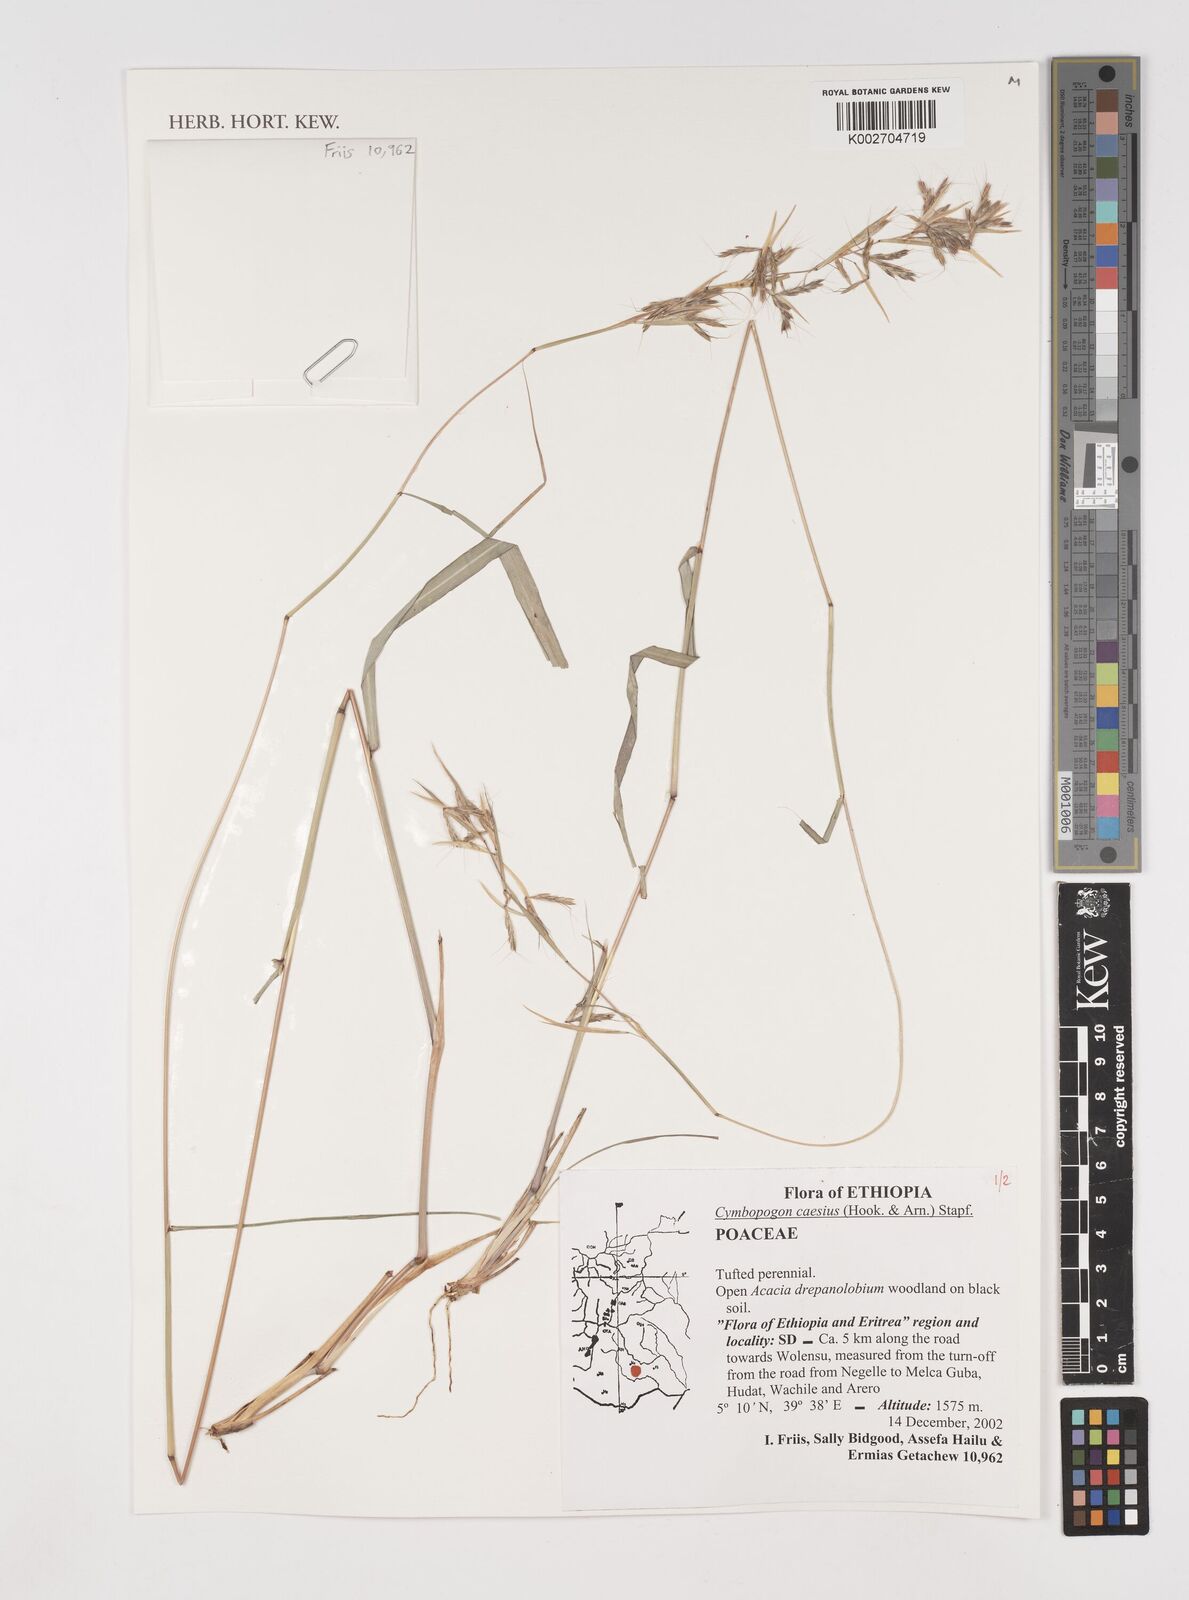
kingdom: Plantae
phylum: Tracheophyta
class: Liliopsida
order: Poales
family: Poaceae
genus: Cymbopogon
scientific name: Cymbopogon caesius
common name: Kachi grass
